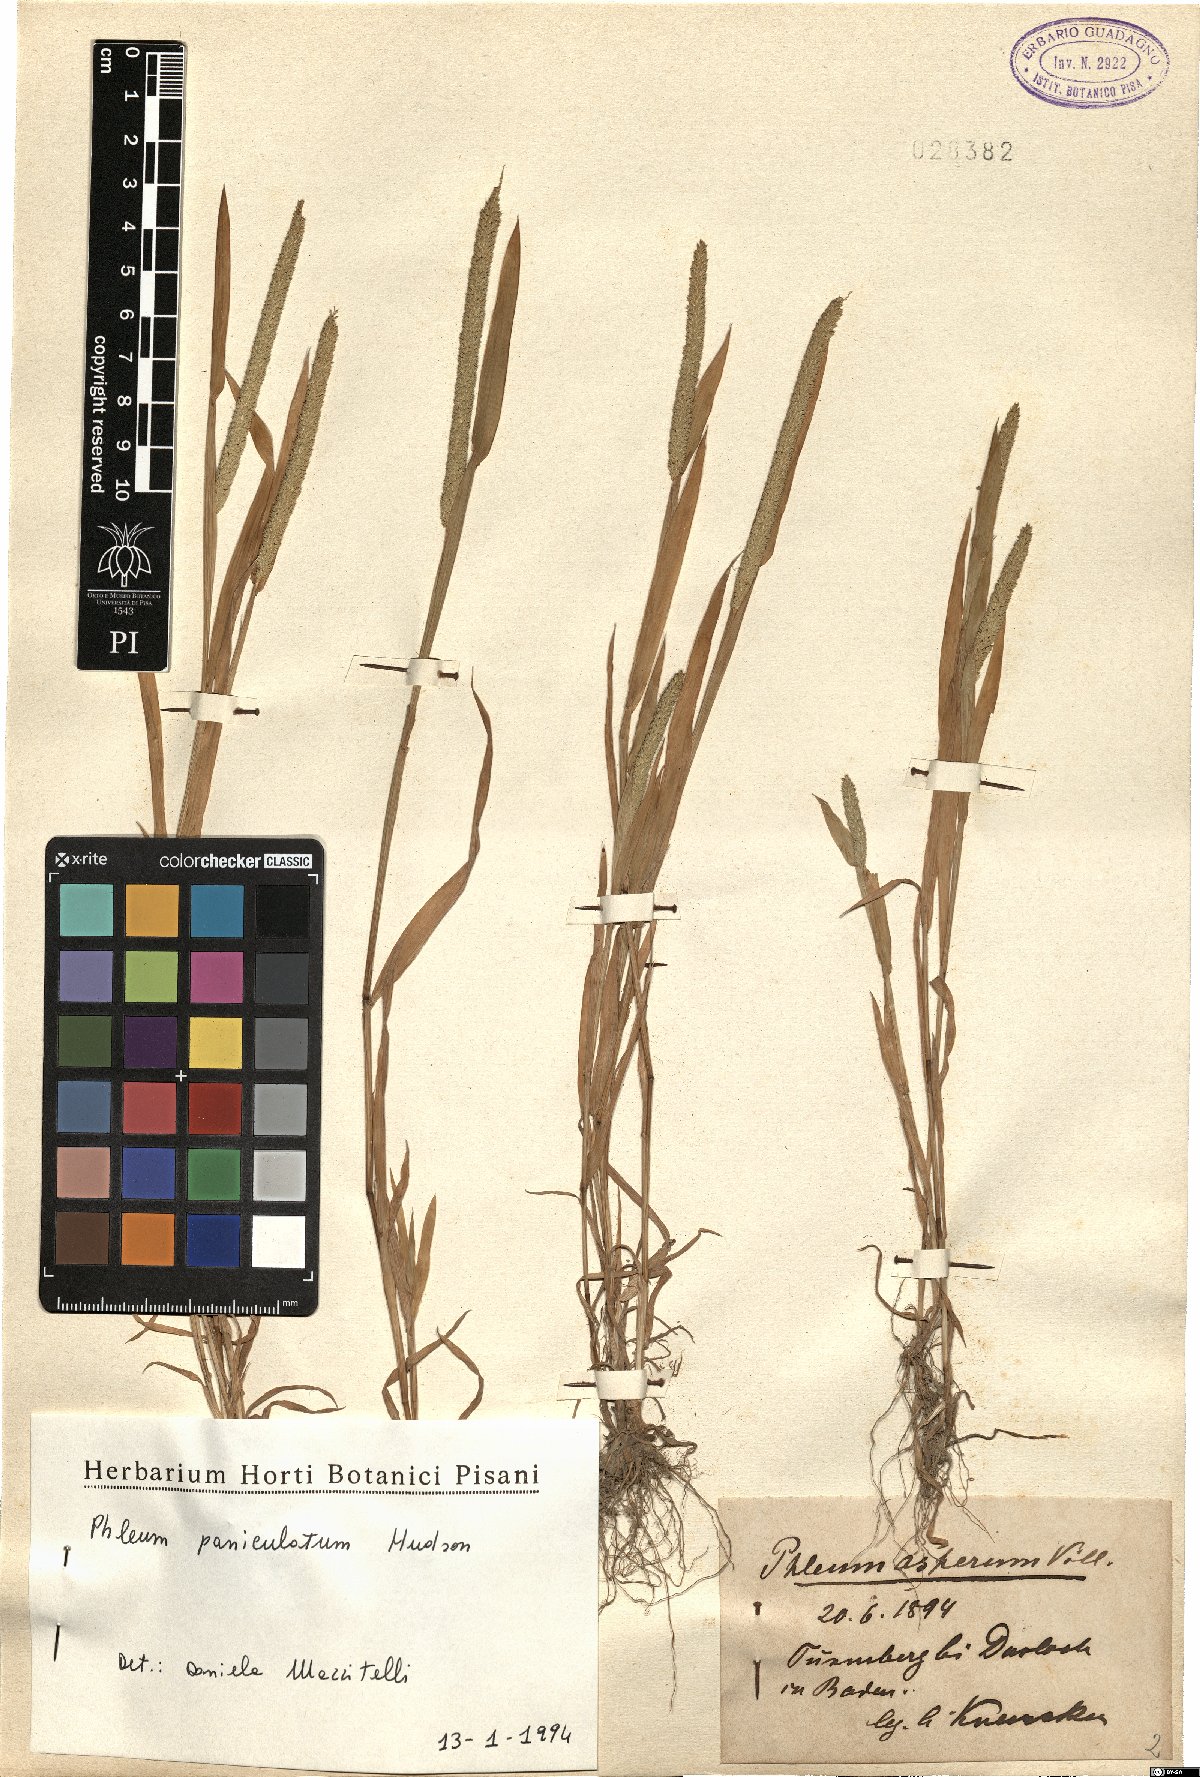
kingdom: Plantae
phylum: Tracheophyta
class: Liliopsida
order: Poales
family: Poaceae
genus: Phleum
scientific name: Phleum paniculatum
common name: British timothy
